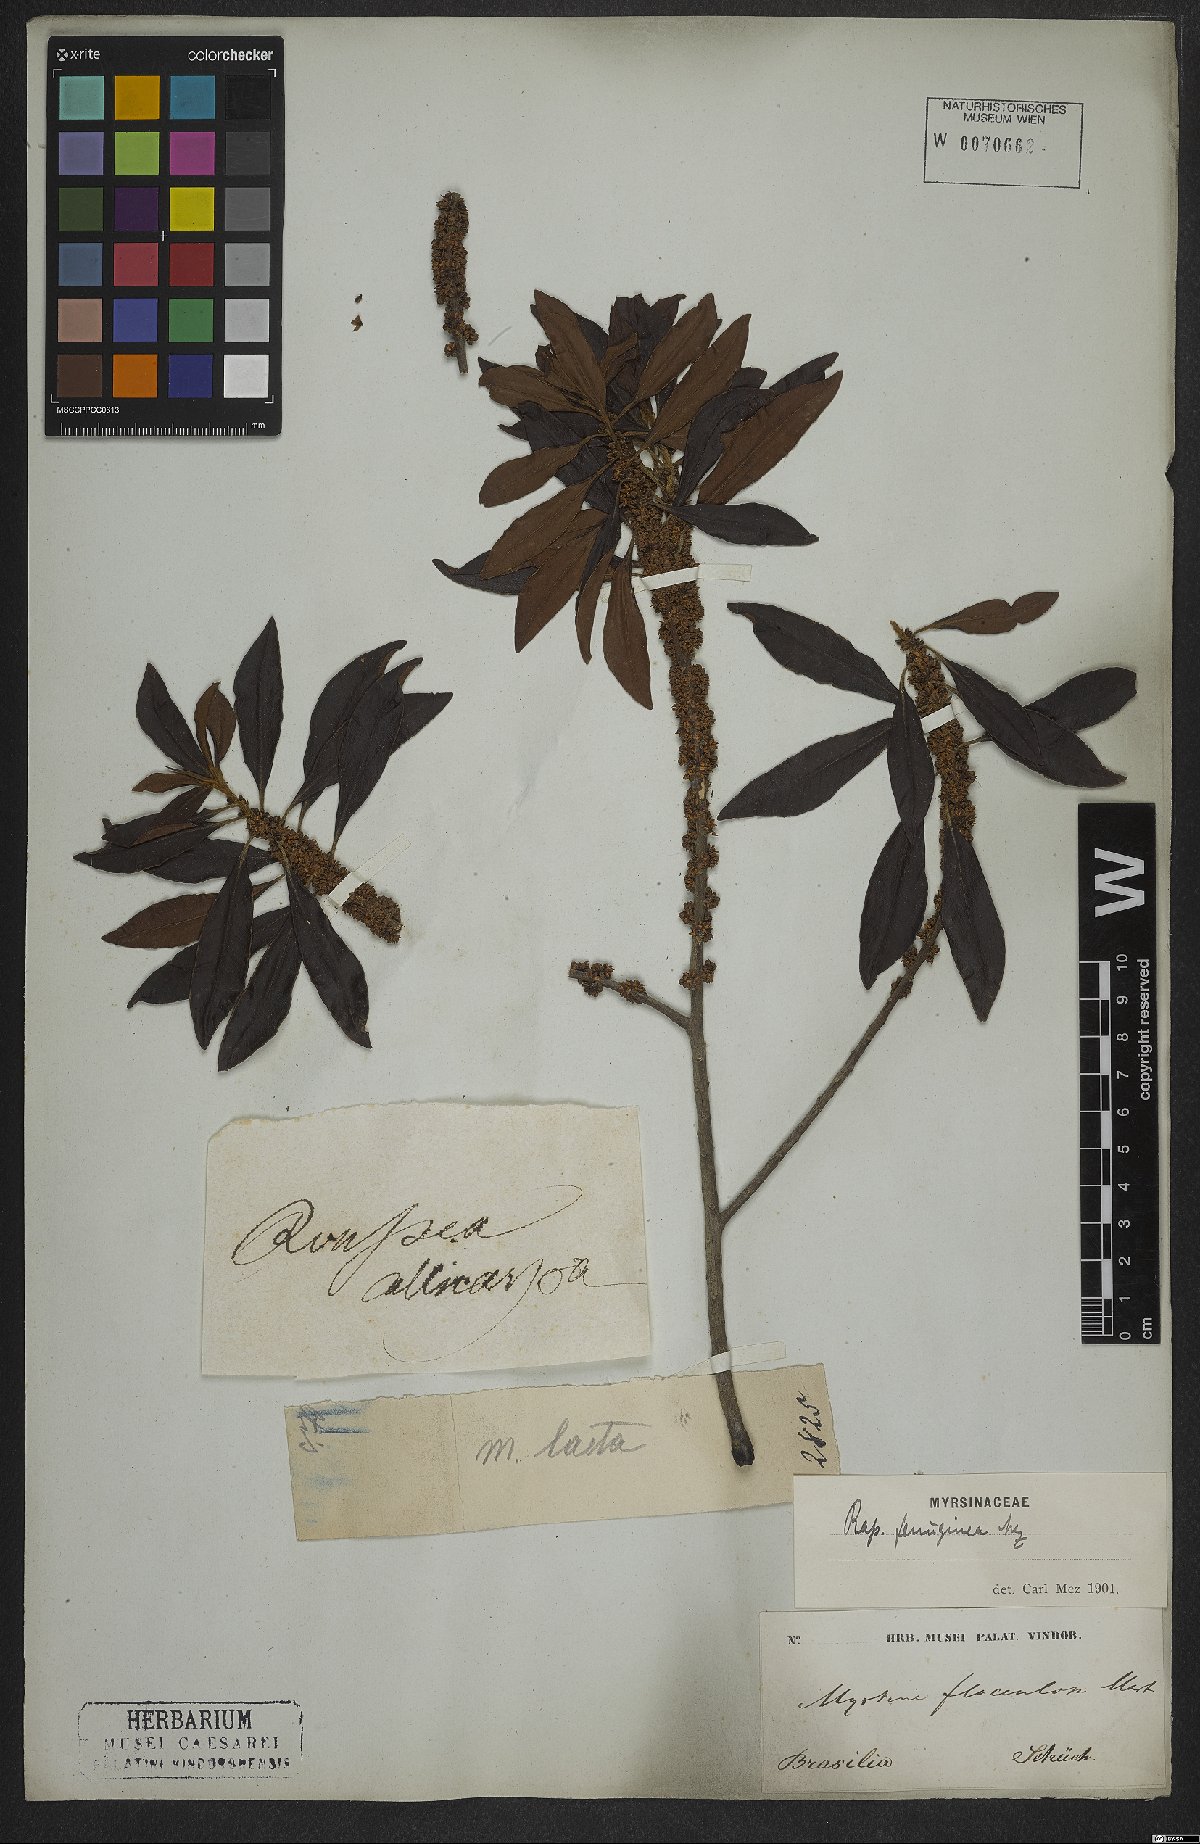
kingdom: Plantae
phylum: Tracheophyta
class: Magnoliopsida
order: Ericales
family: Primulaceae
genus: Myrsine
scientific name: Myrsine coriacea
